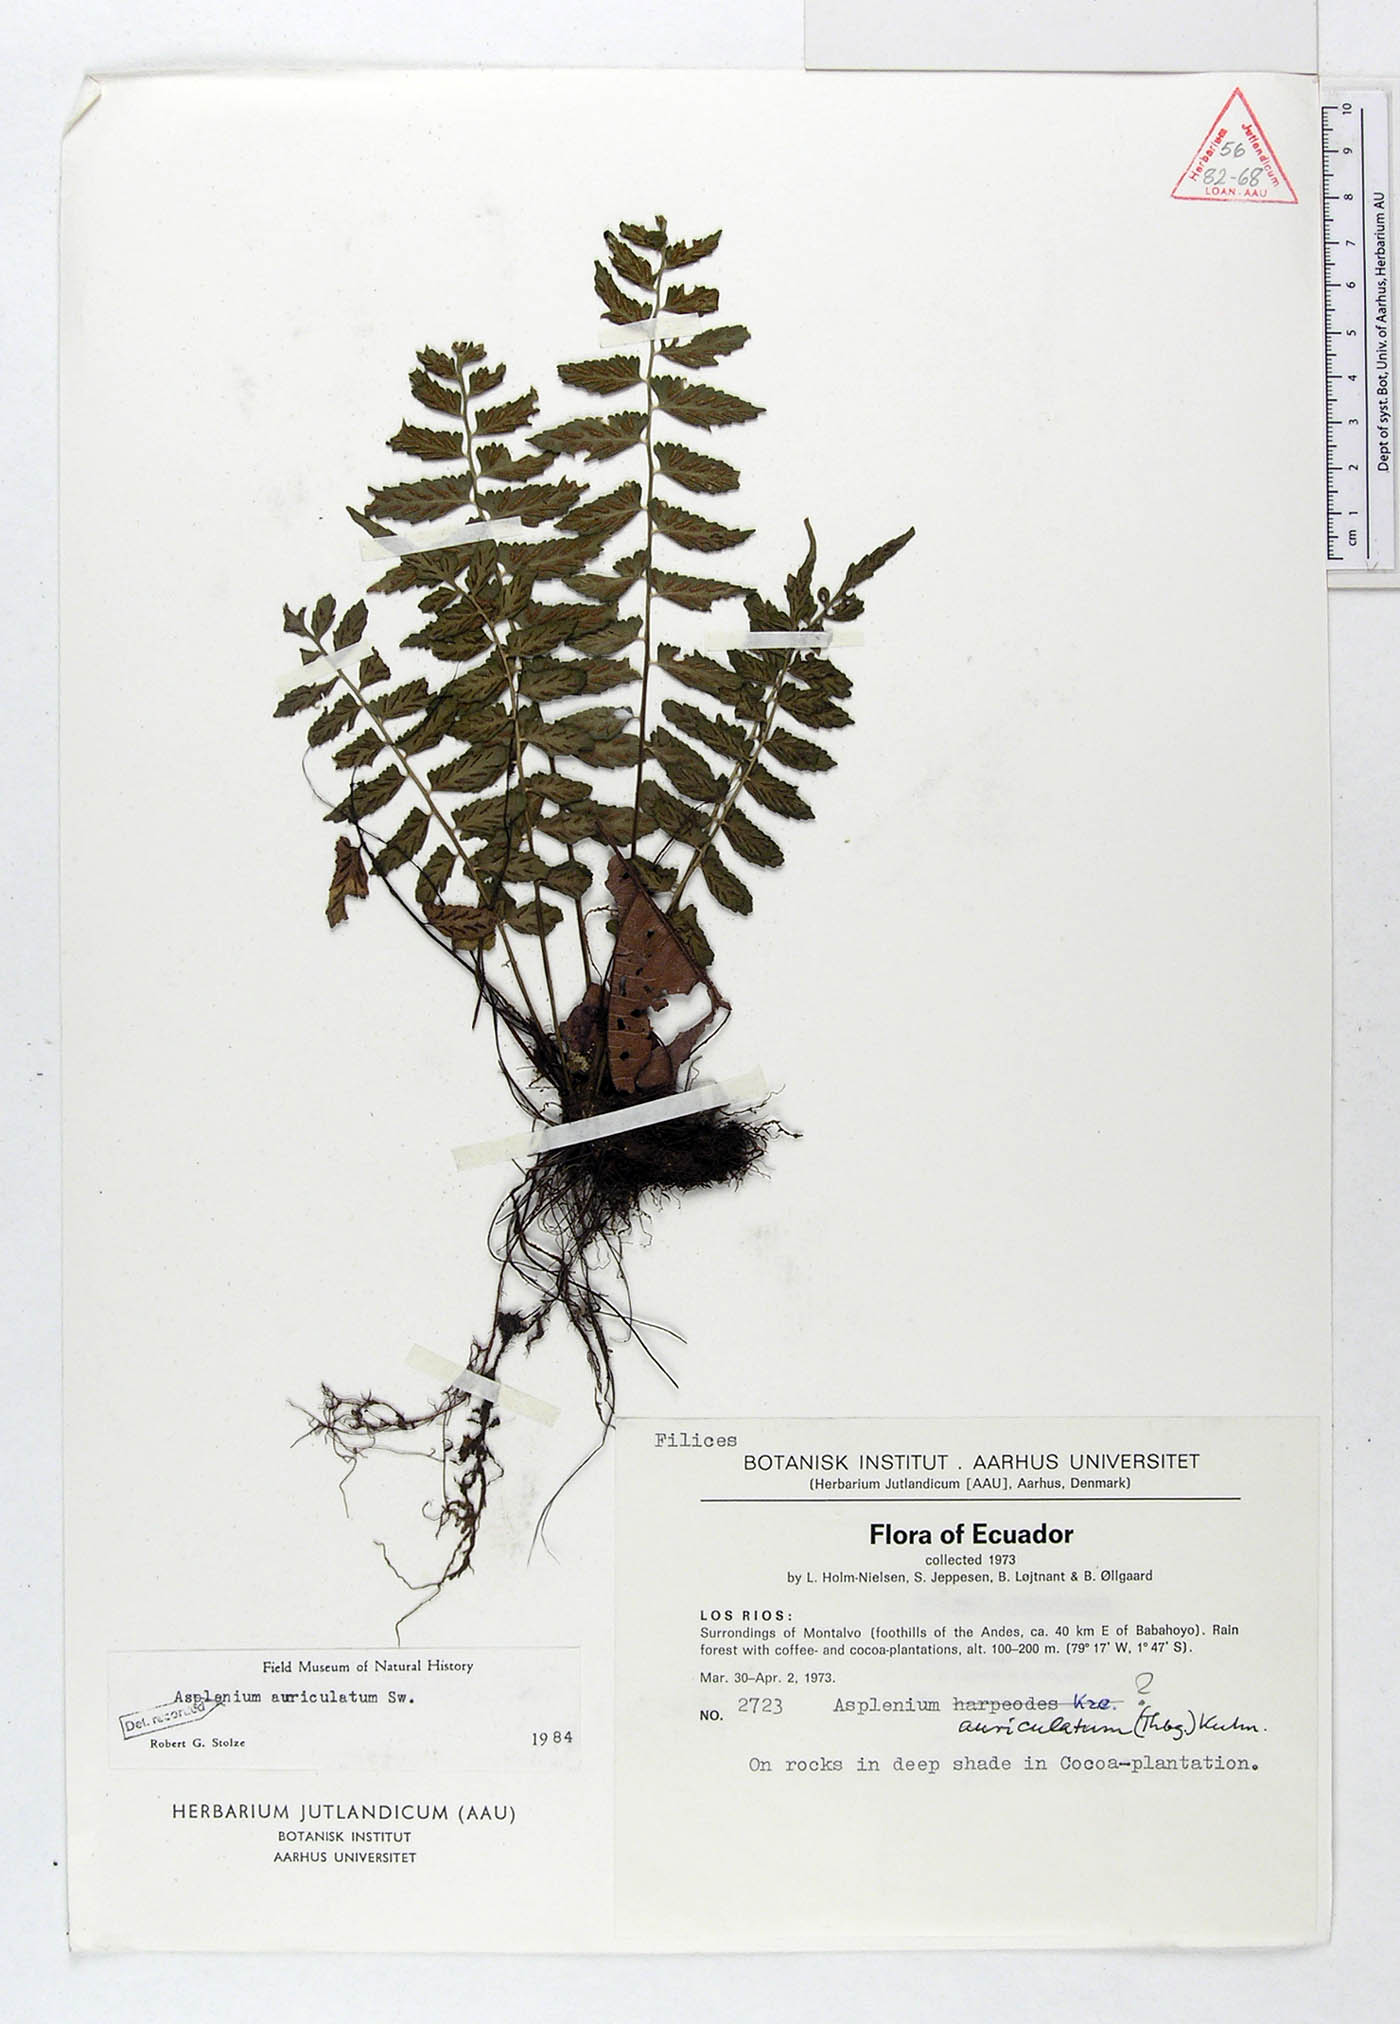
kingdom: Plantae
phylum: Tracheophyta
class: Polypodiopsida
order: Polypodiales
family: Aspleniaceae
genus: Asplenium
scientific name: Asplenium auriculatum
